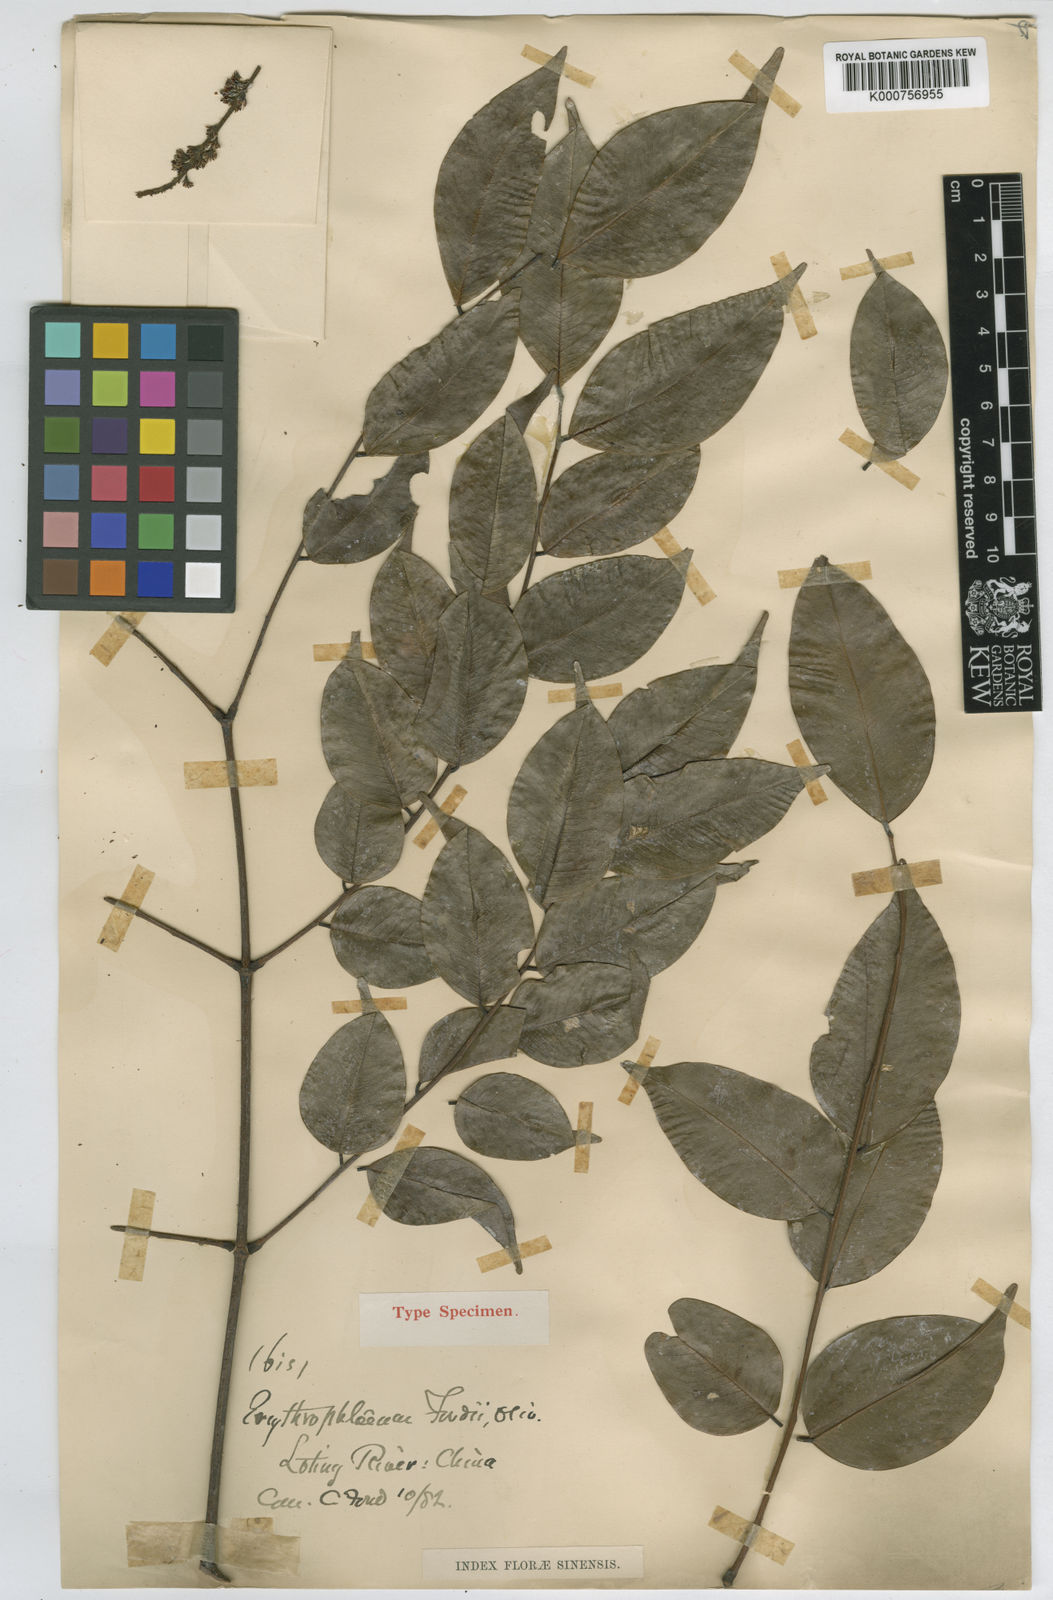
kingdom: Plantae
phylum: Tracheophyta
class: Magnoliopsida
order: Fabales
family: Fabaceae
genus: Erythrophleum
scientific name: Erythrophleum fordii
